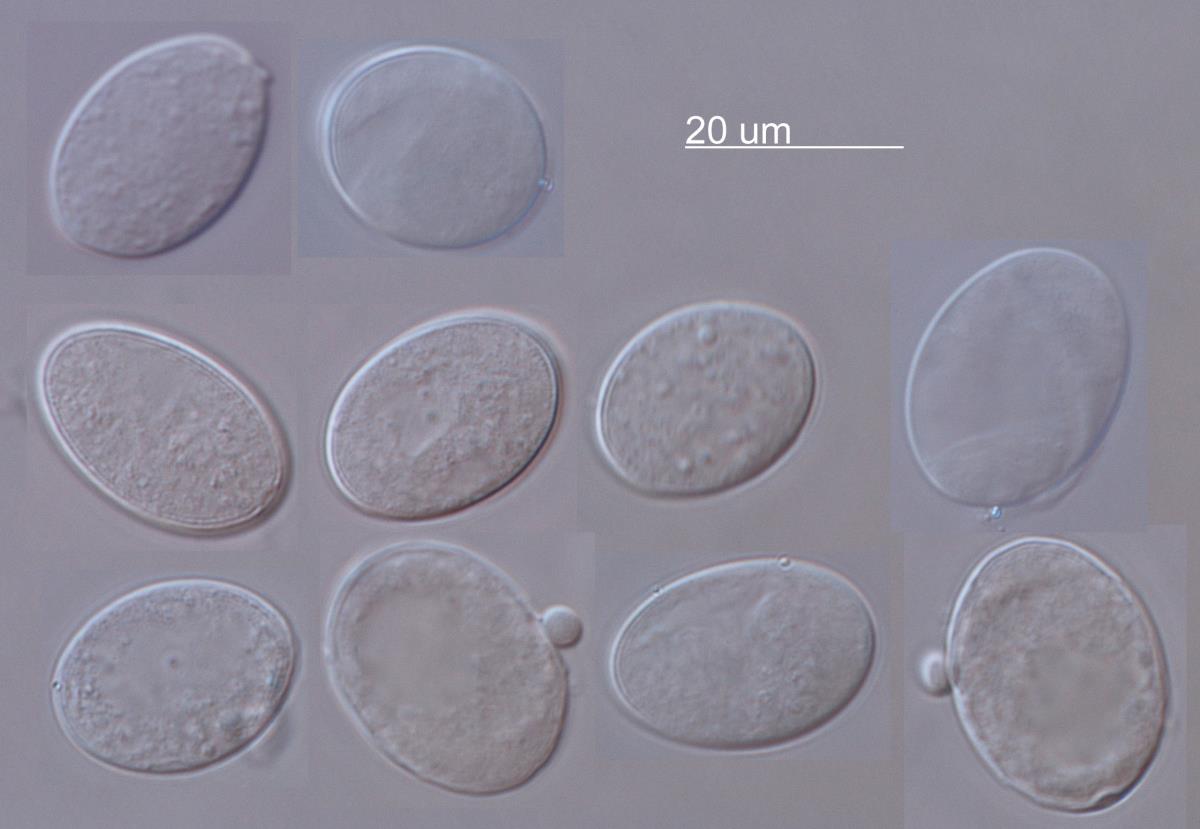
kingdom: Chromista
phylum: Oomycota
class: Peronosporea
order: Peronosporales
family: Peronosporaceae
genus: Hyaloperonospora
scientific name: Hyaloperonospora parasitica
